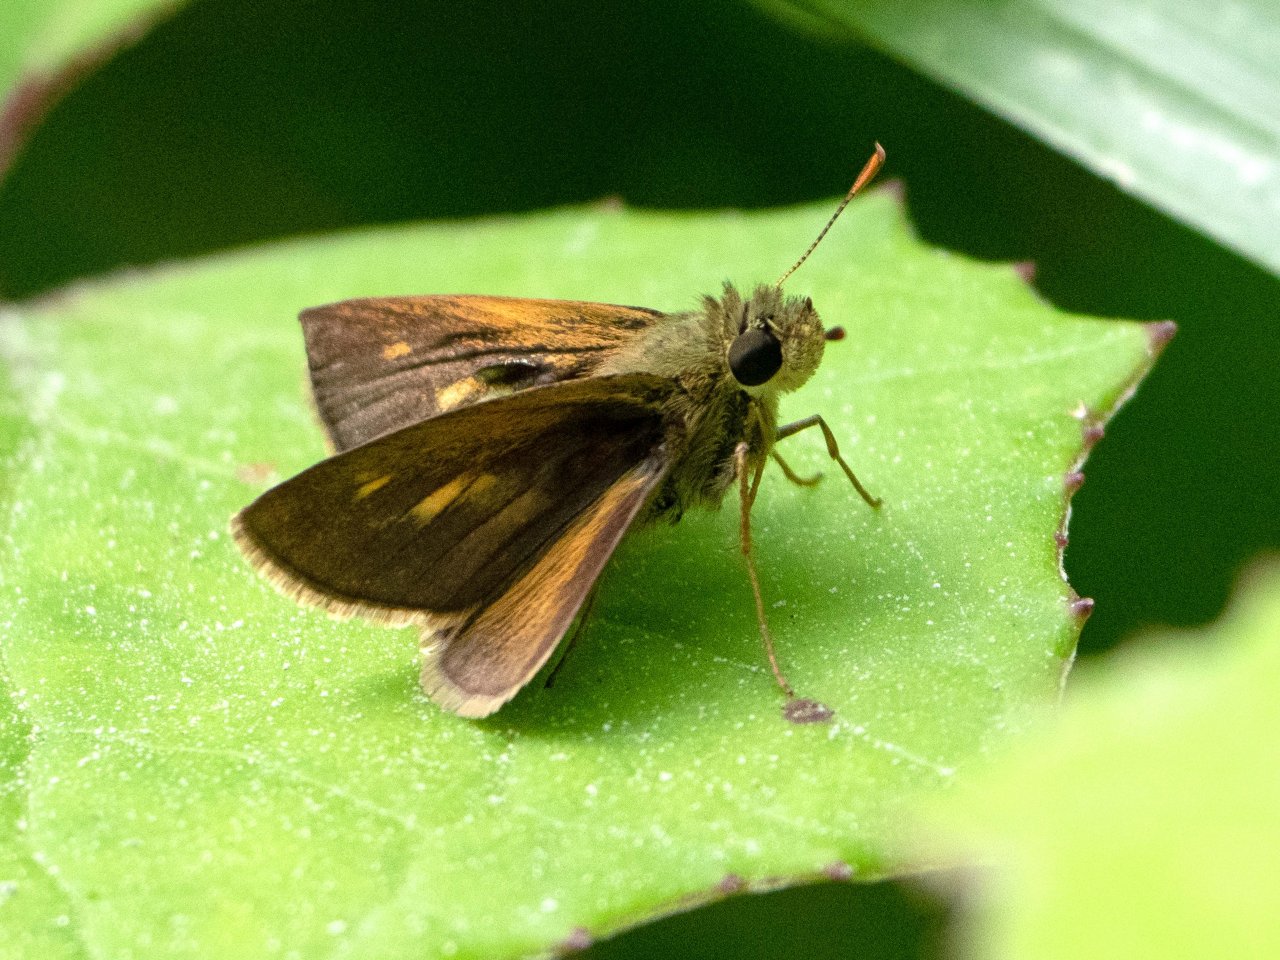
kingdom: Animalia
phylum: Arthropoda
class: Insecta
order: Lepidoptera
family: Hesperiidae
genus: Polites
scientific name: Polites themistocles
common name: Tawny-edged Skipper
